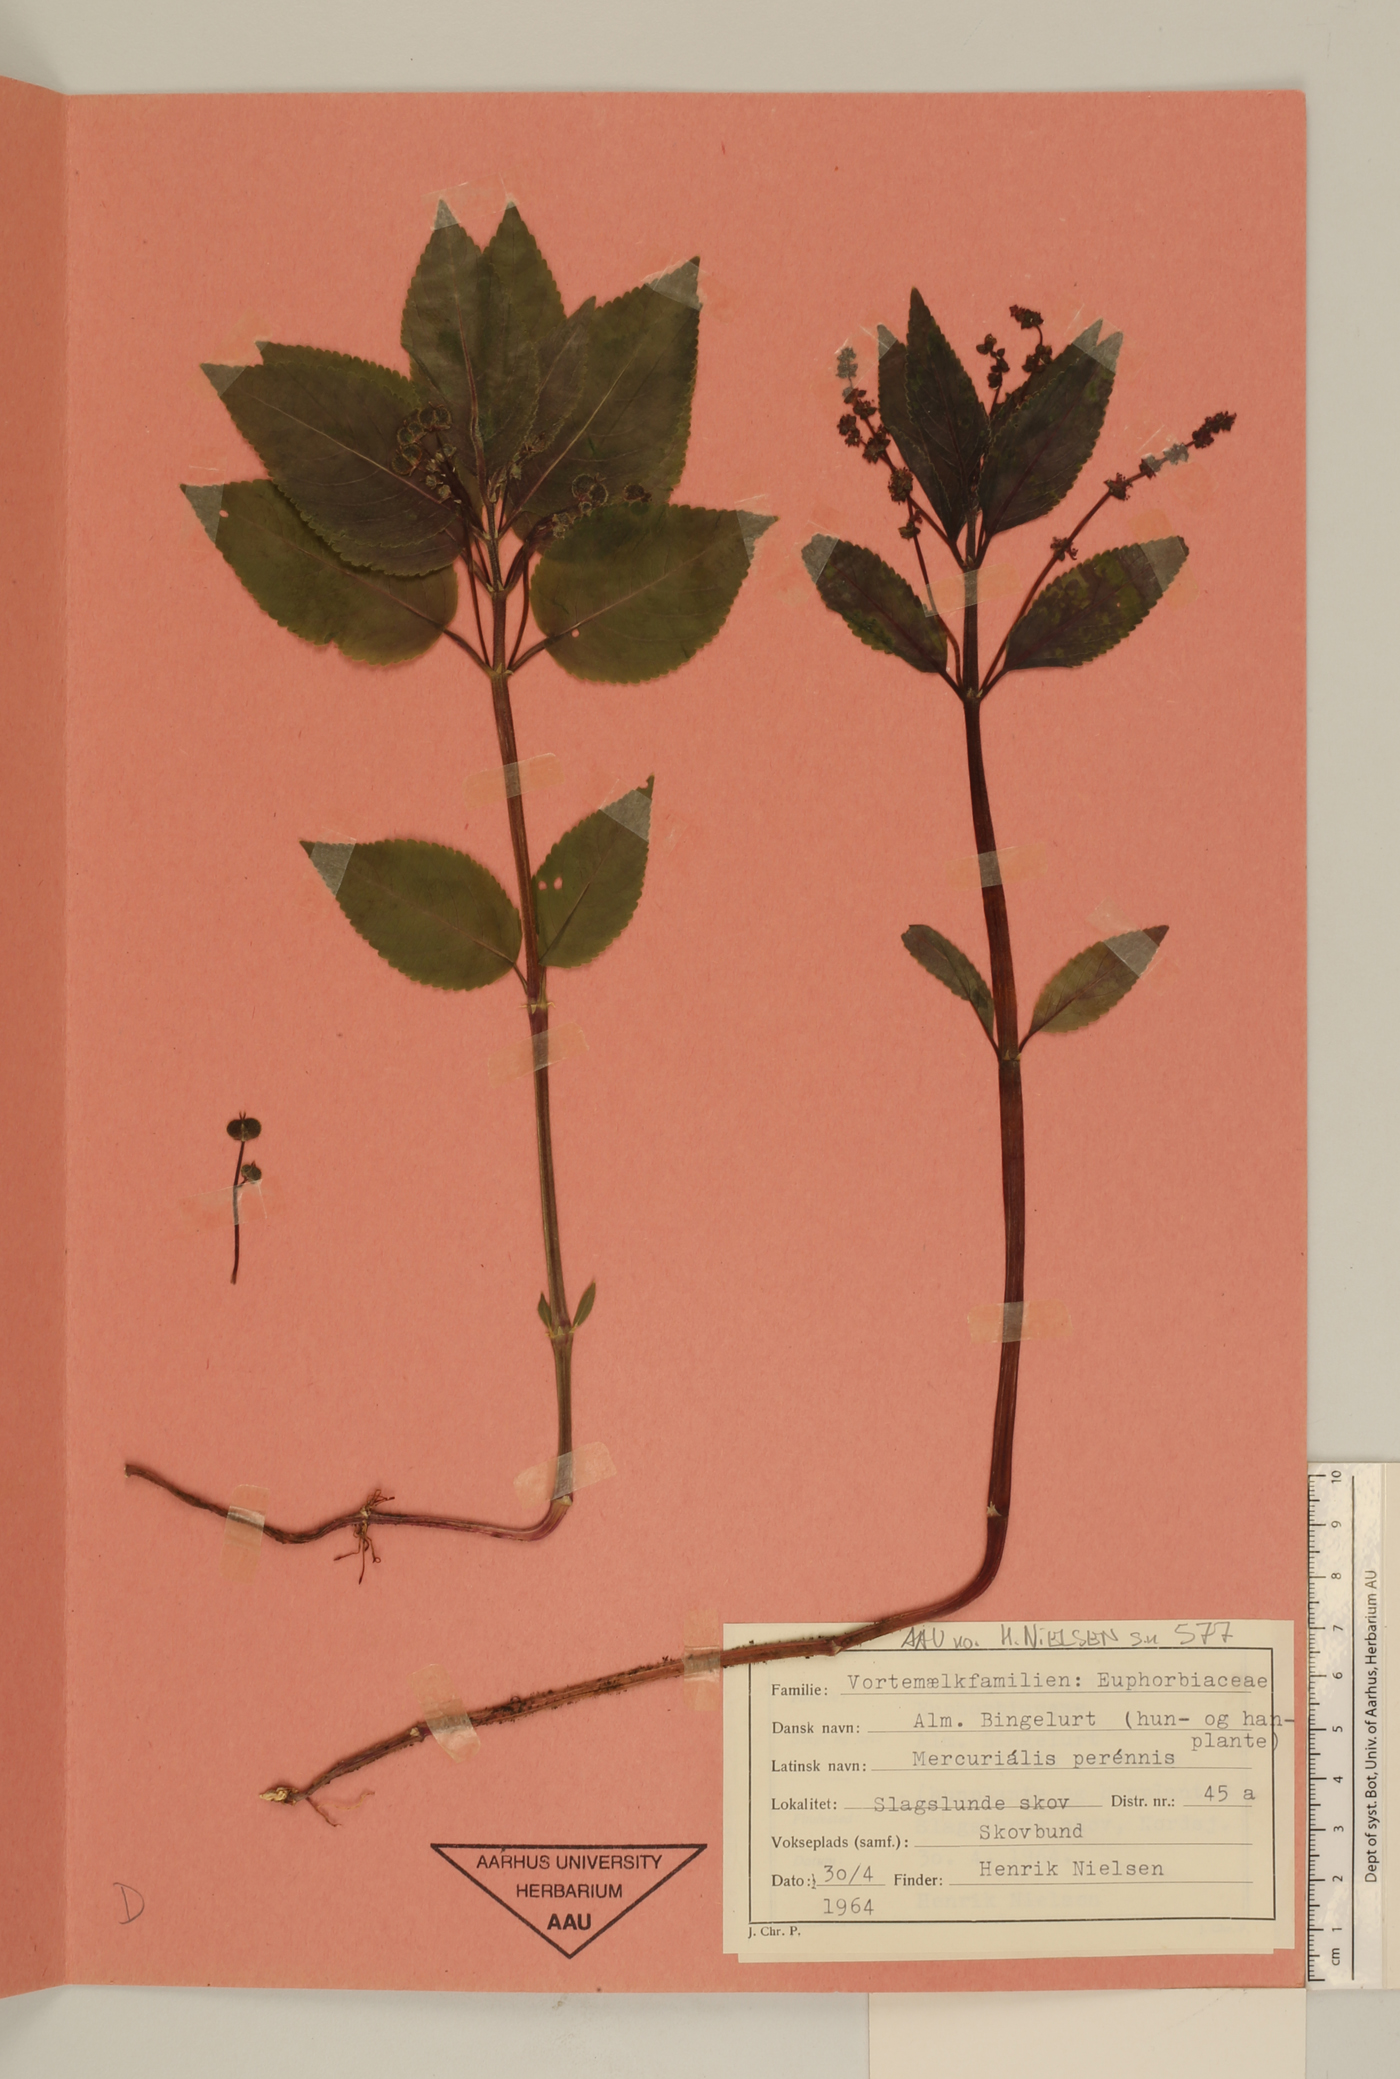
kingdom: Plantae
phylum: Tracheophyta
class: Magnoliopsida
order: Malpighiales
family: Euphorbiaceae
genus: Mercurialis
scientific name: Mercurialis perennis
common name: Dog mercury
